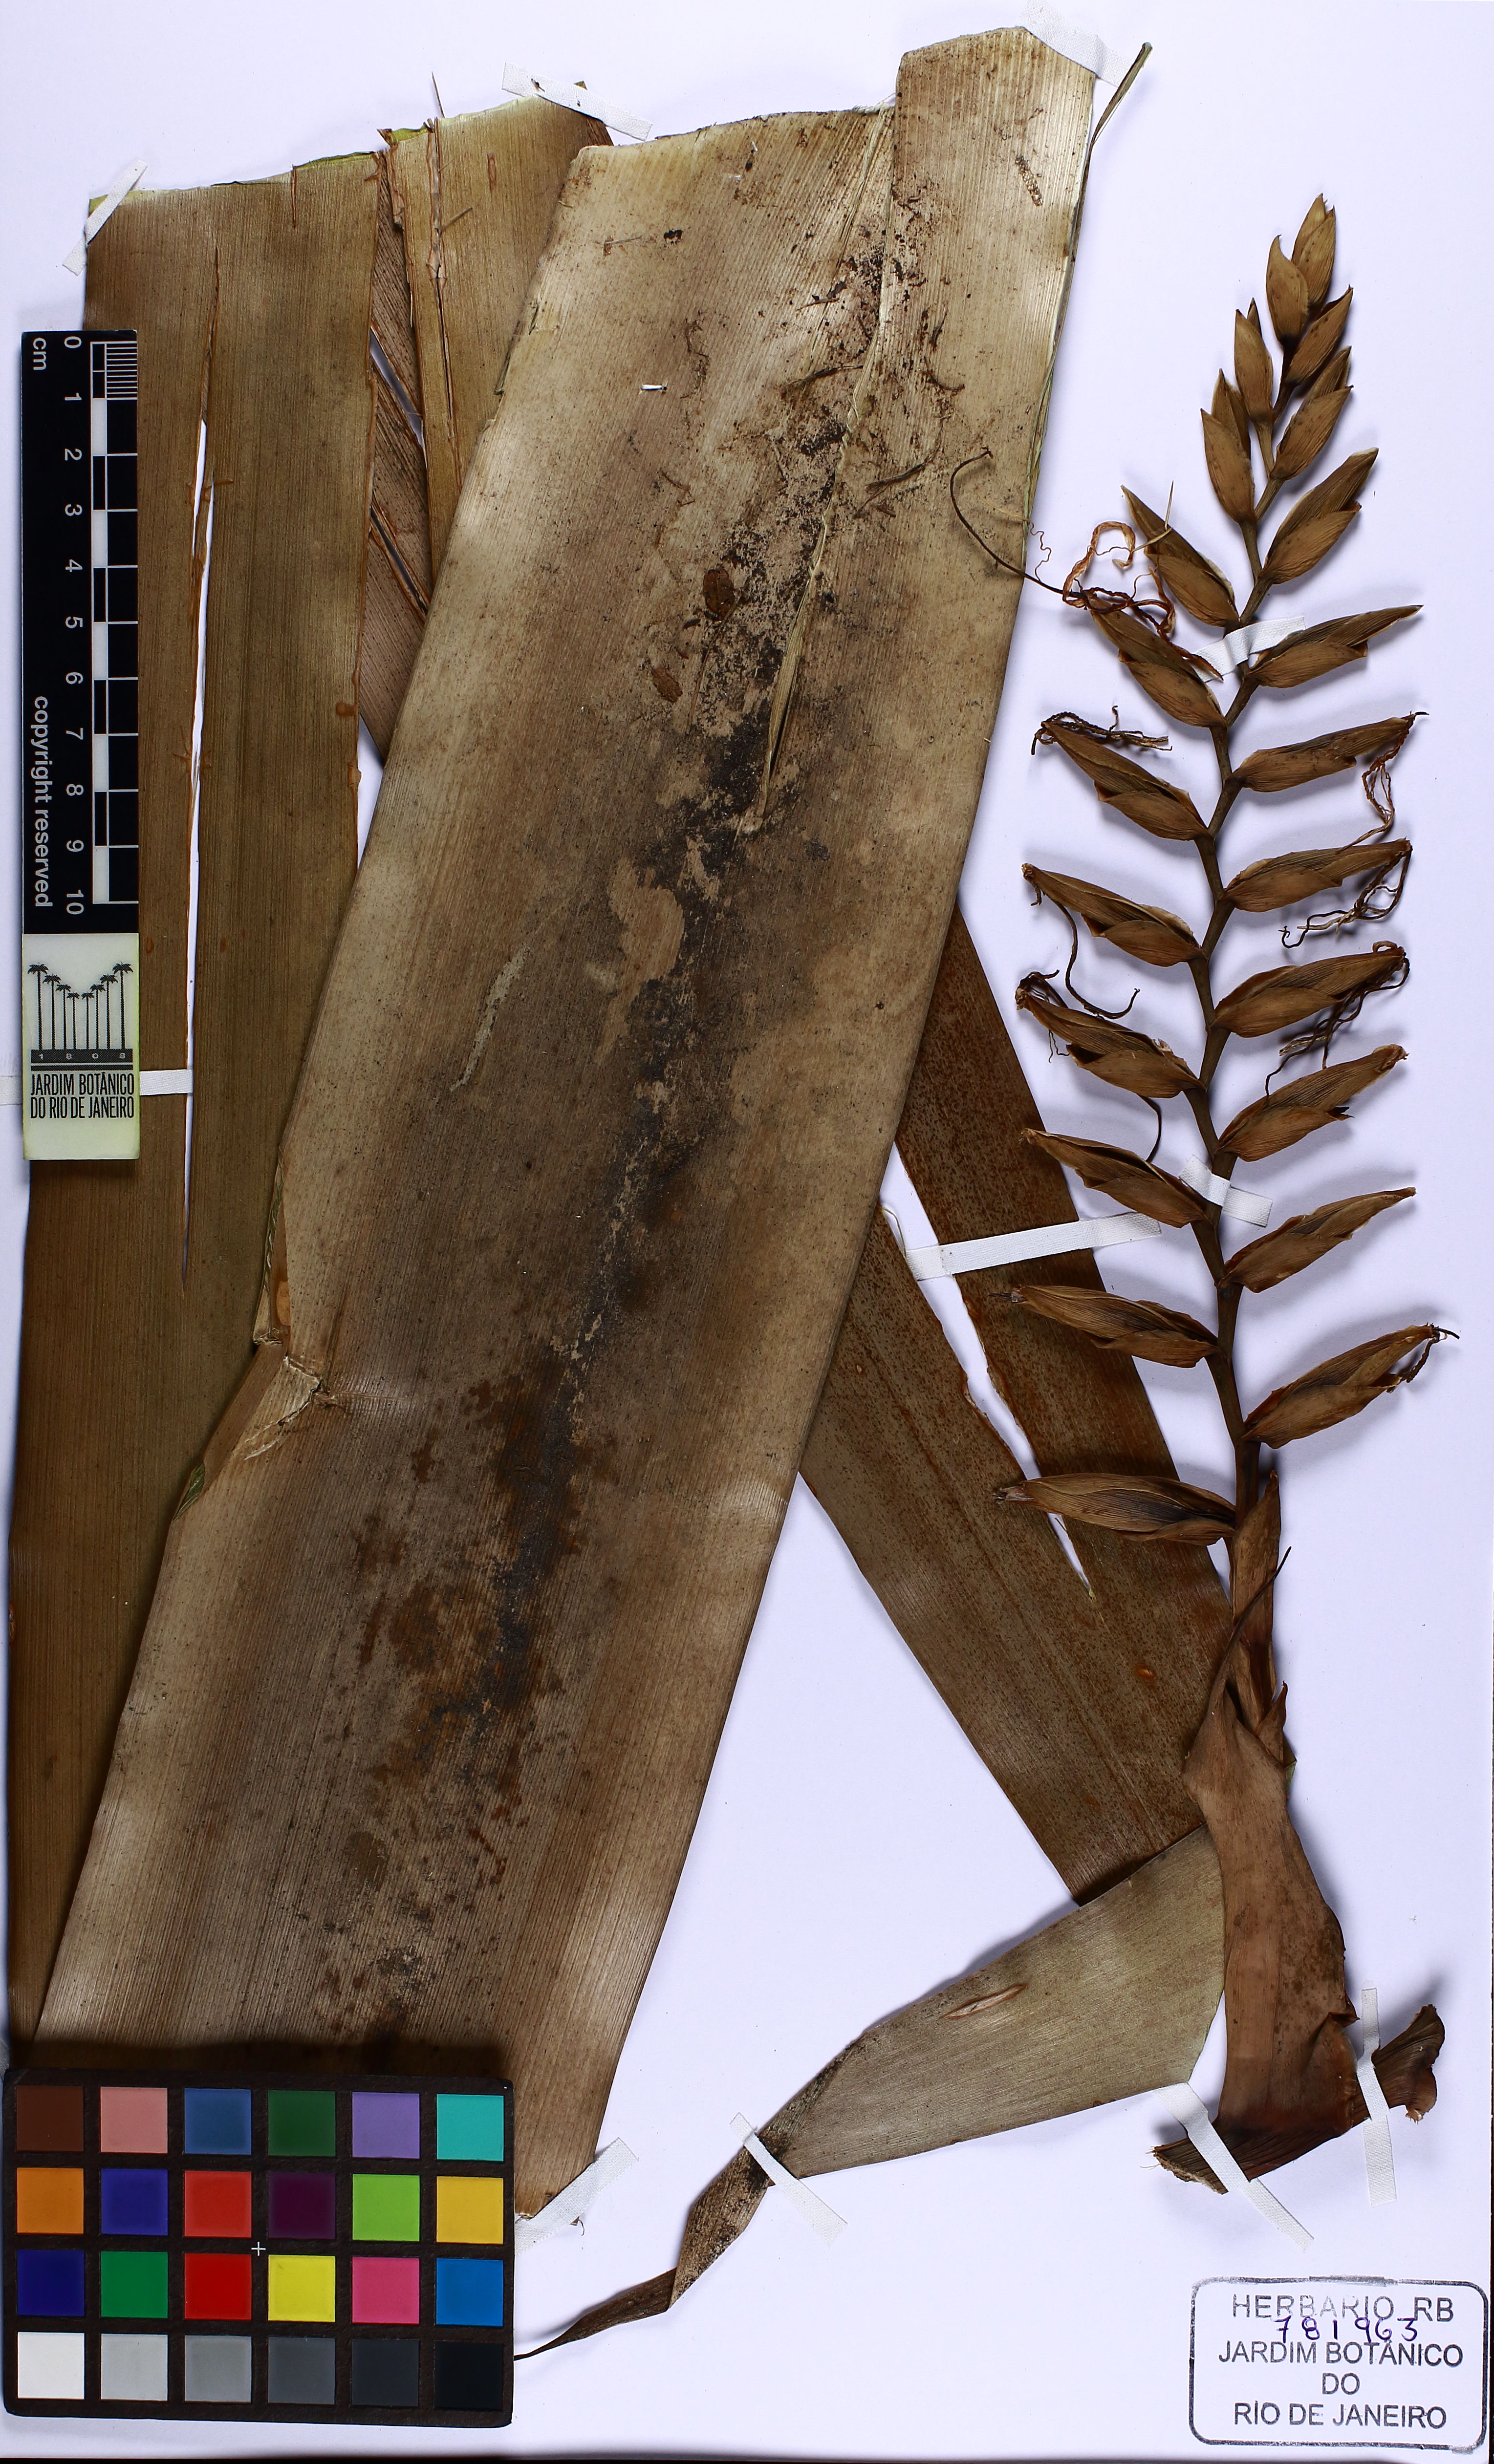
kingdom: Plantae
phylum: Tracheophyta
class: Liliopsida
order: Poales
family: Bromeliaceae
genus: Alcantarea
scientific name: Alcantarea geniculata
